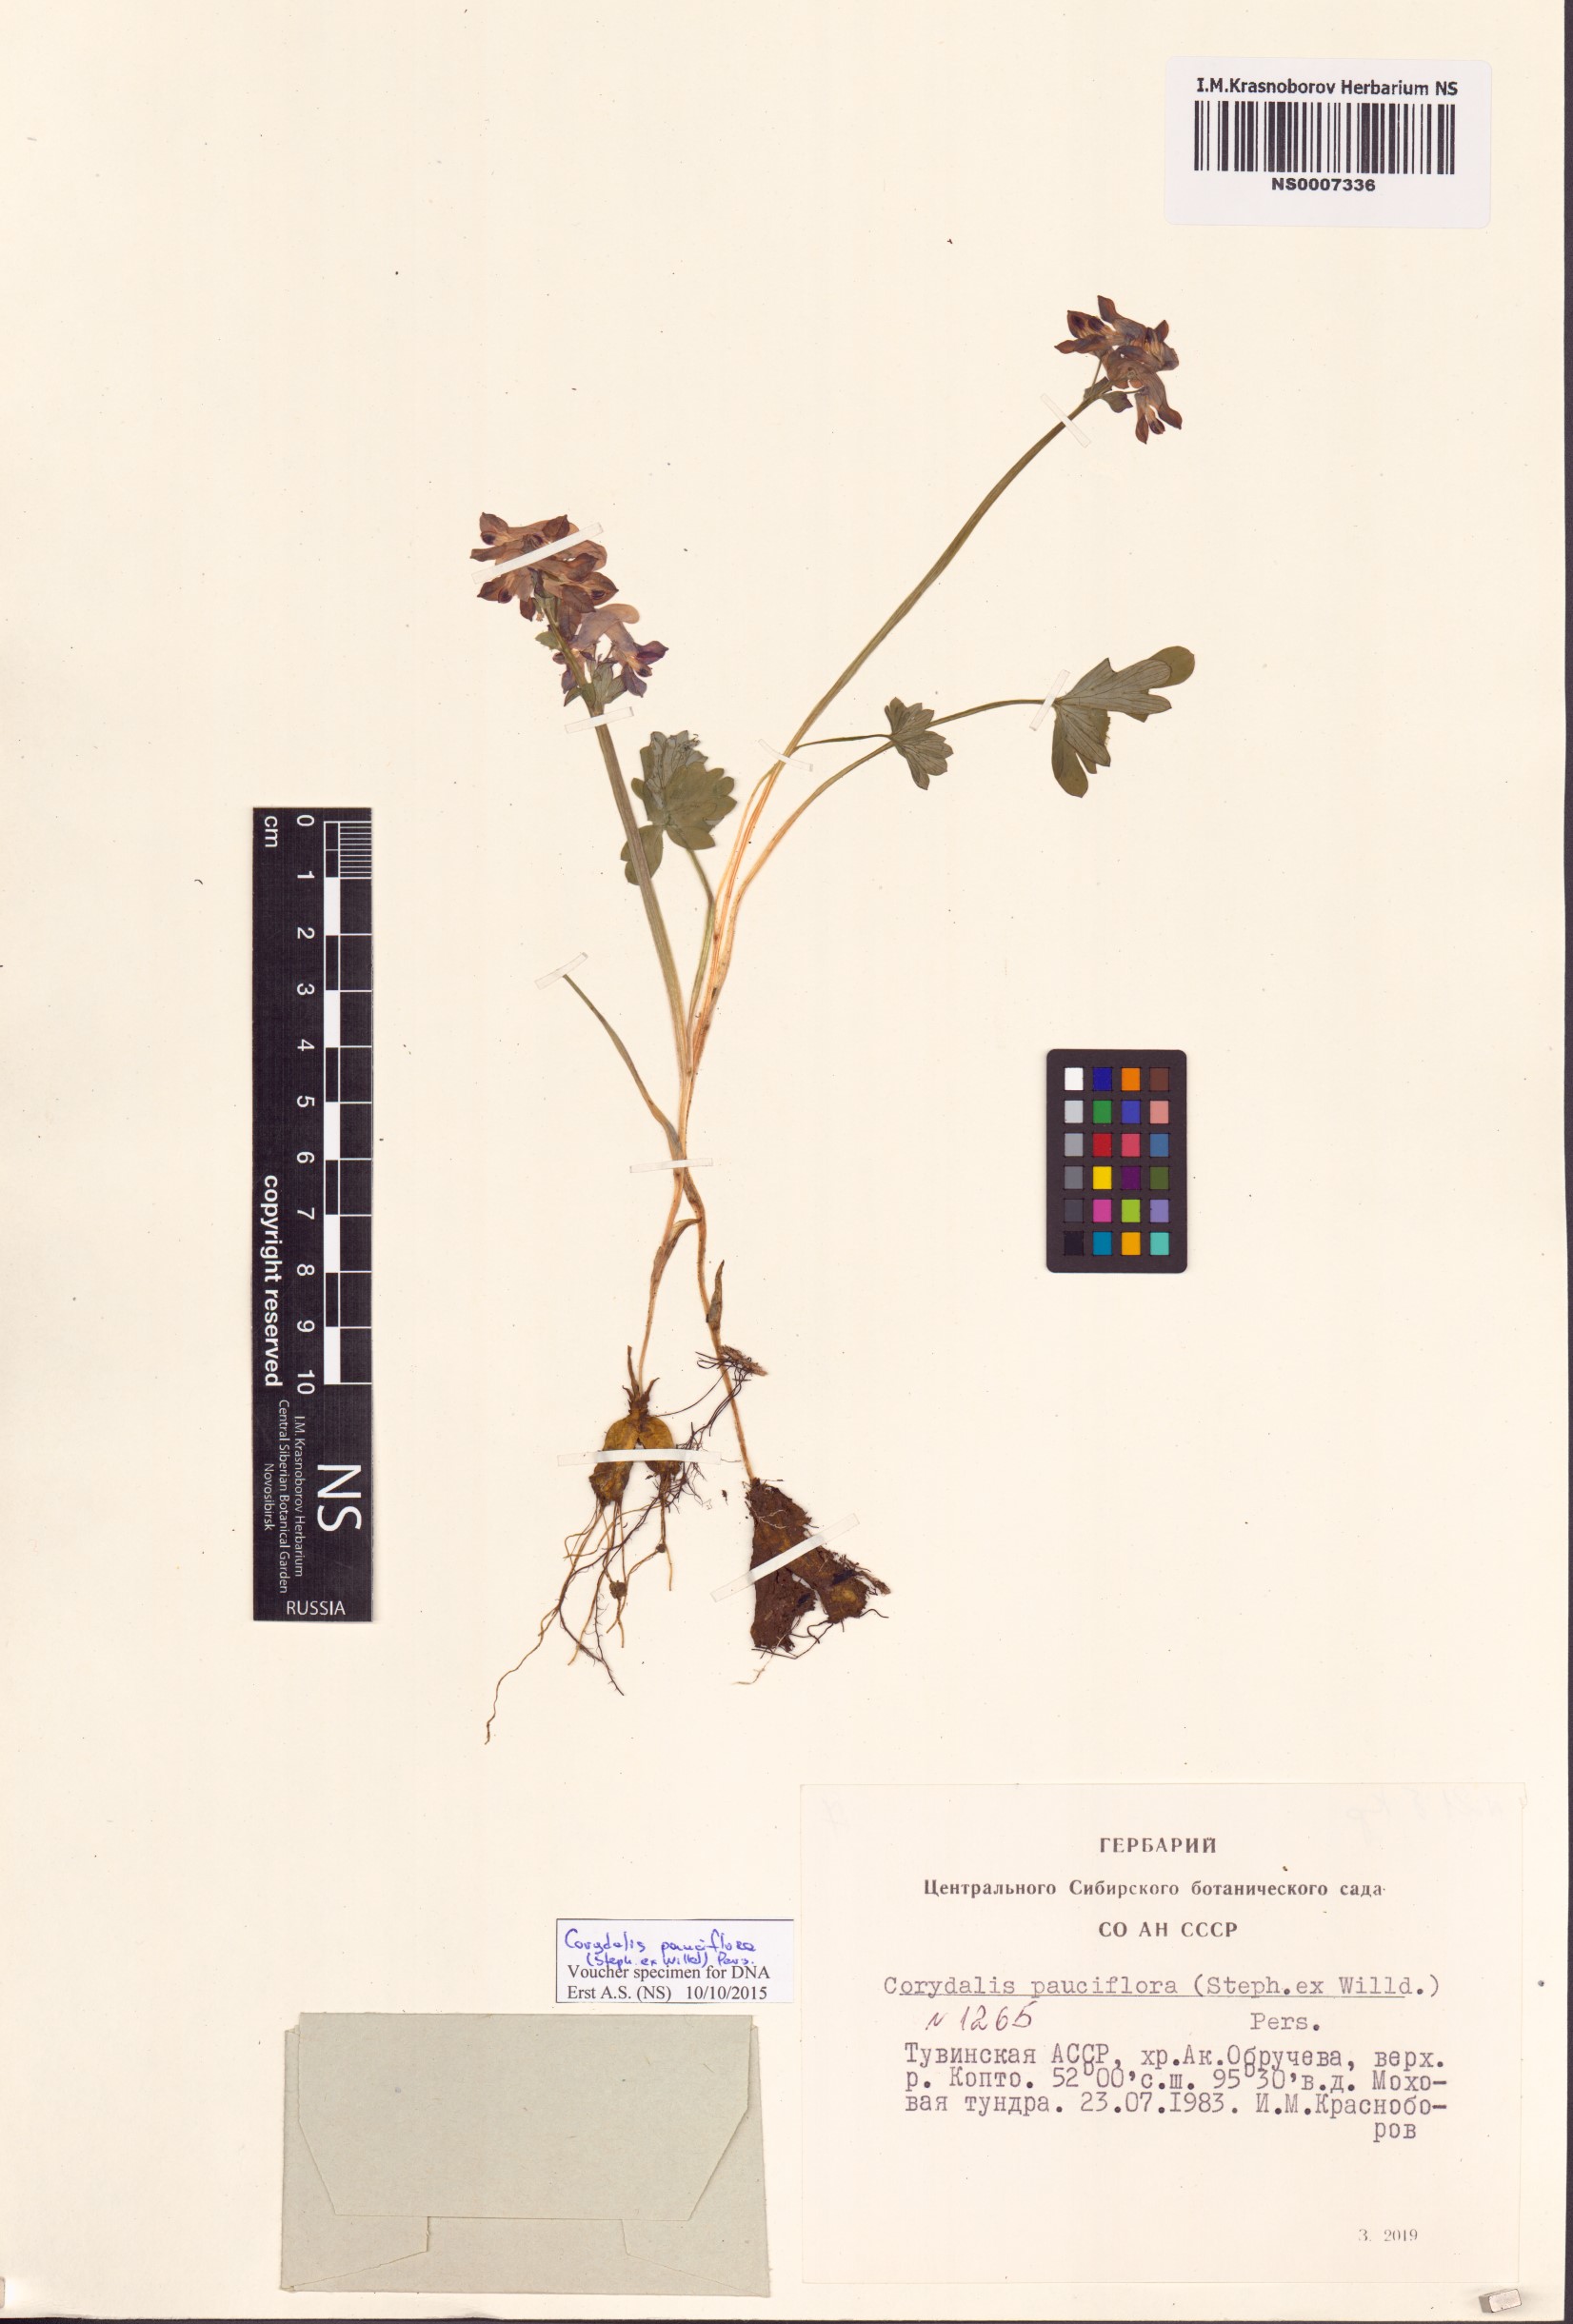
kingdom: Plantae
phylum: Tracheophyta
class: Magnoliopsida
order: Ranunculales
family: Papaveraceae
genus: Corydalis
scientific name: Corydalis pauciflora
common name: Blue corydalis
